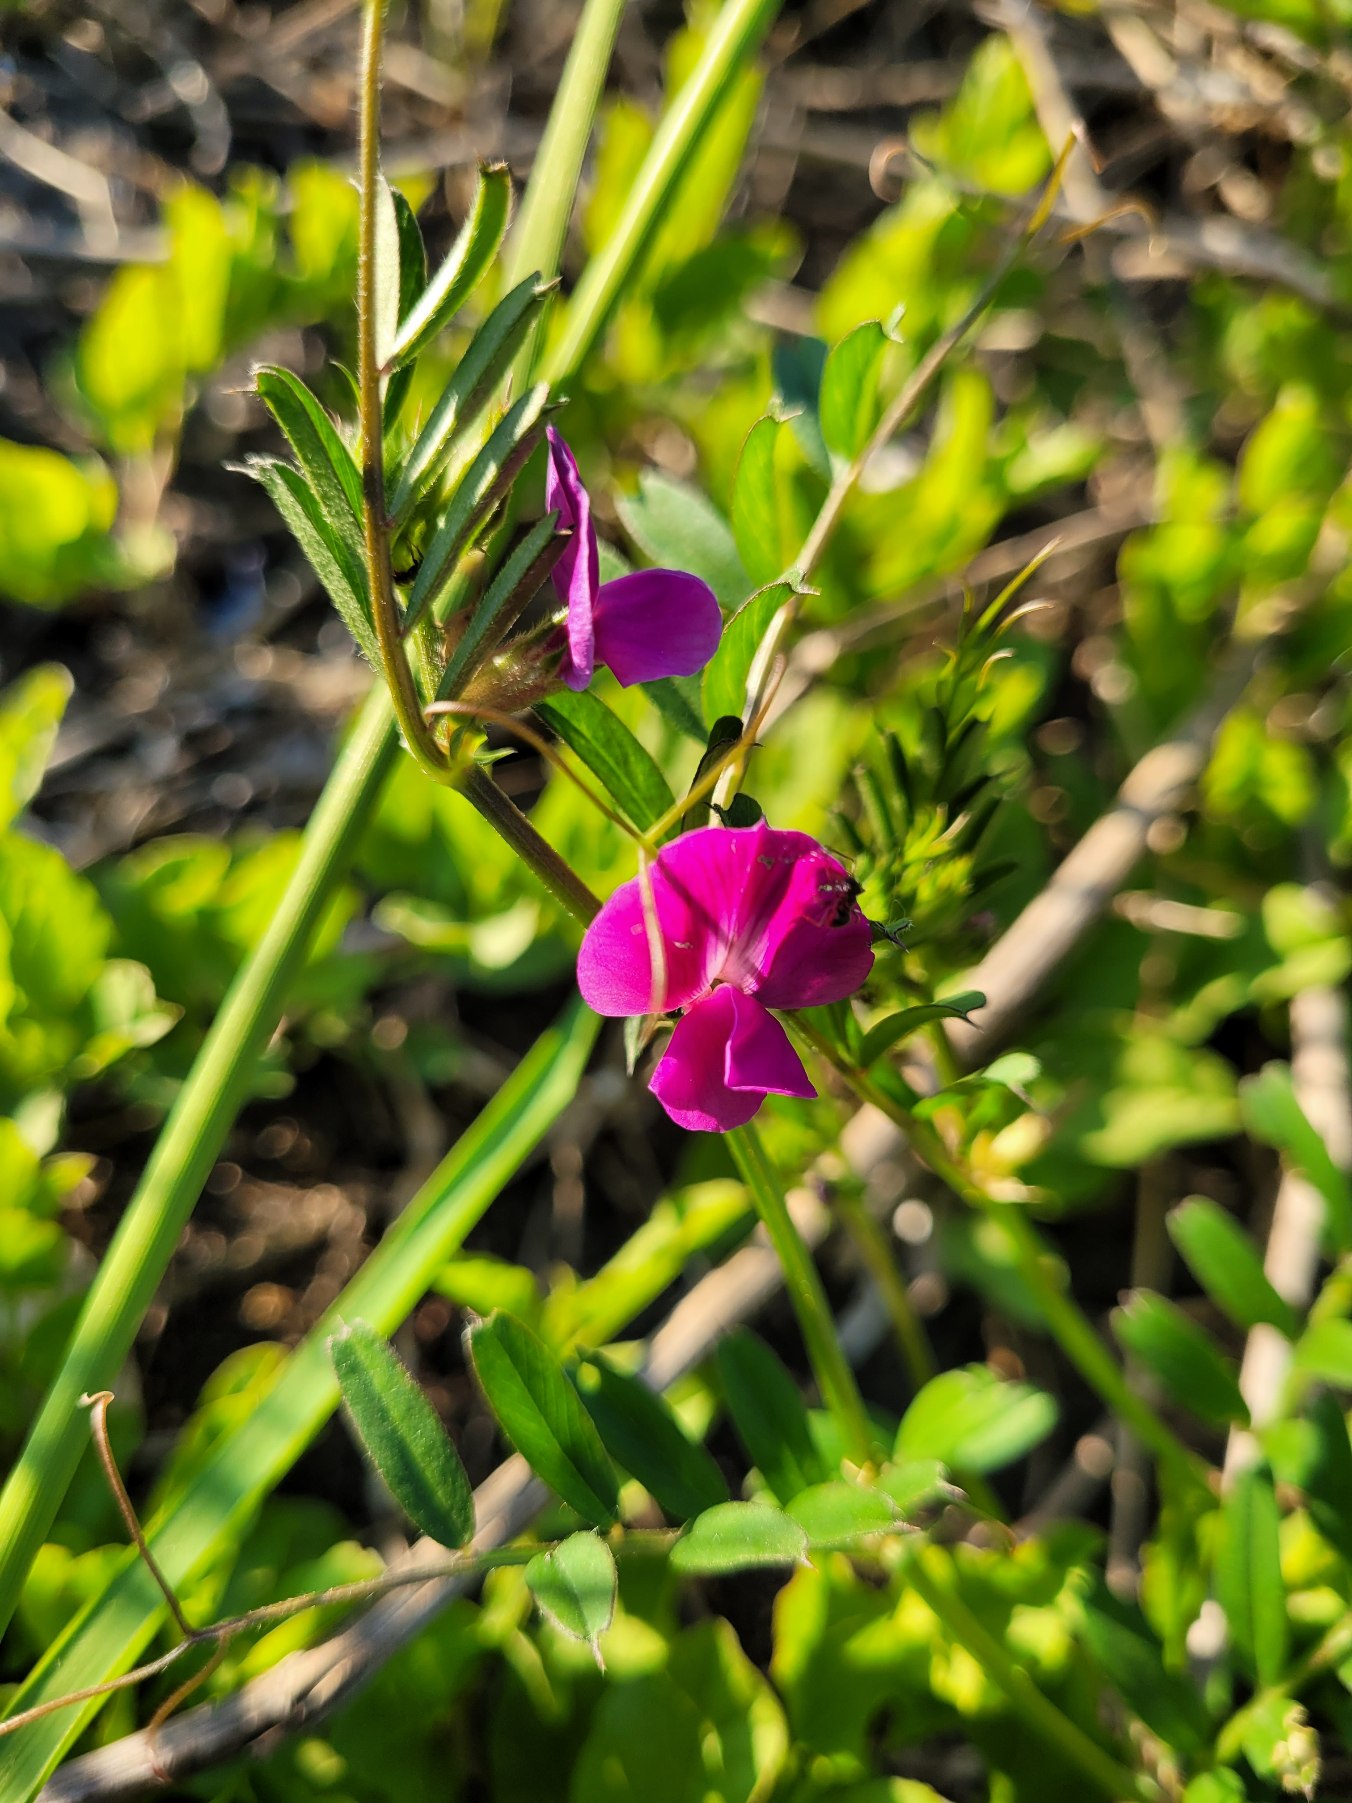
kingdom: Plantae
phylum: Tracheophyta
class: Magnoliopsida
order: Fabales
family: Fabaceae
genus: Vicia
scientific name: Vicia sativa
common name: Foder-vikke
